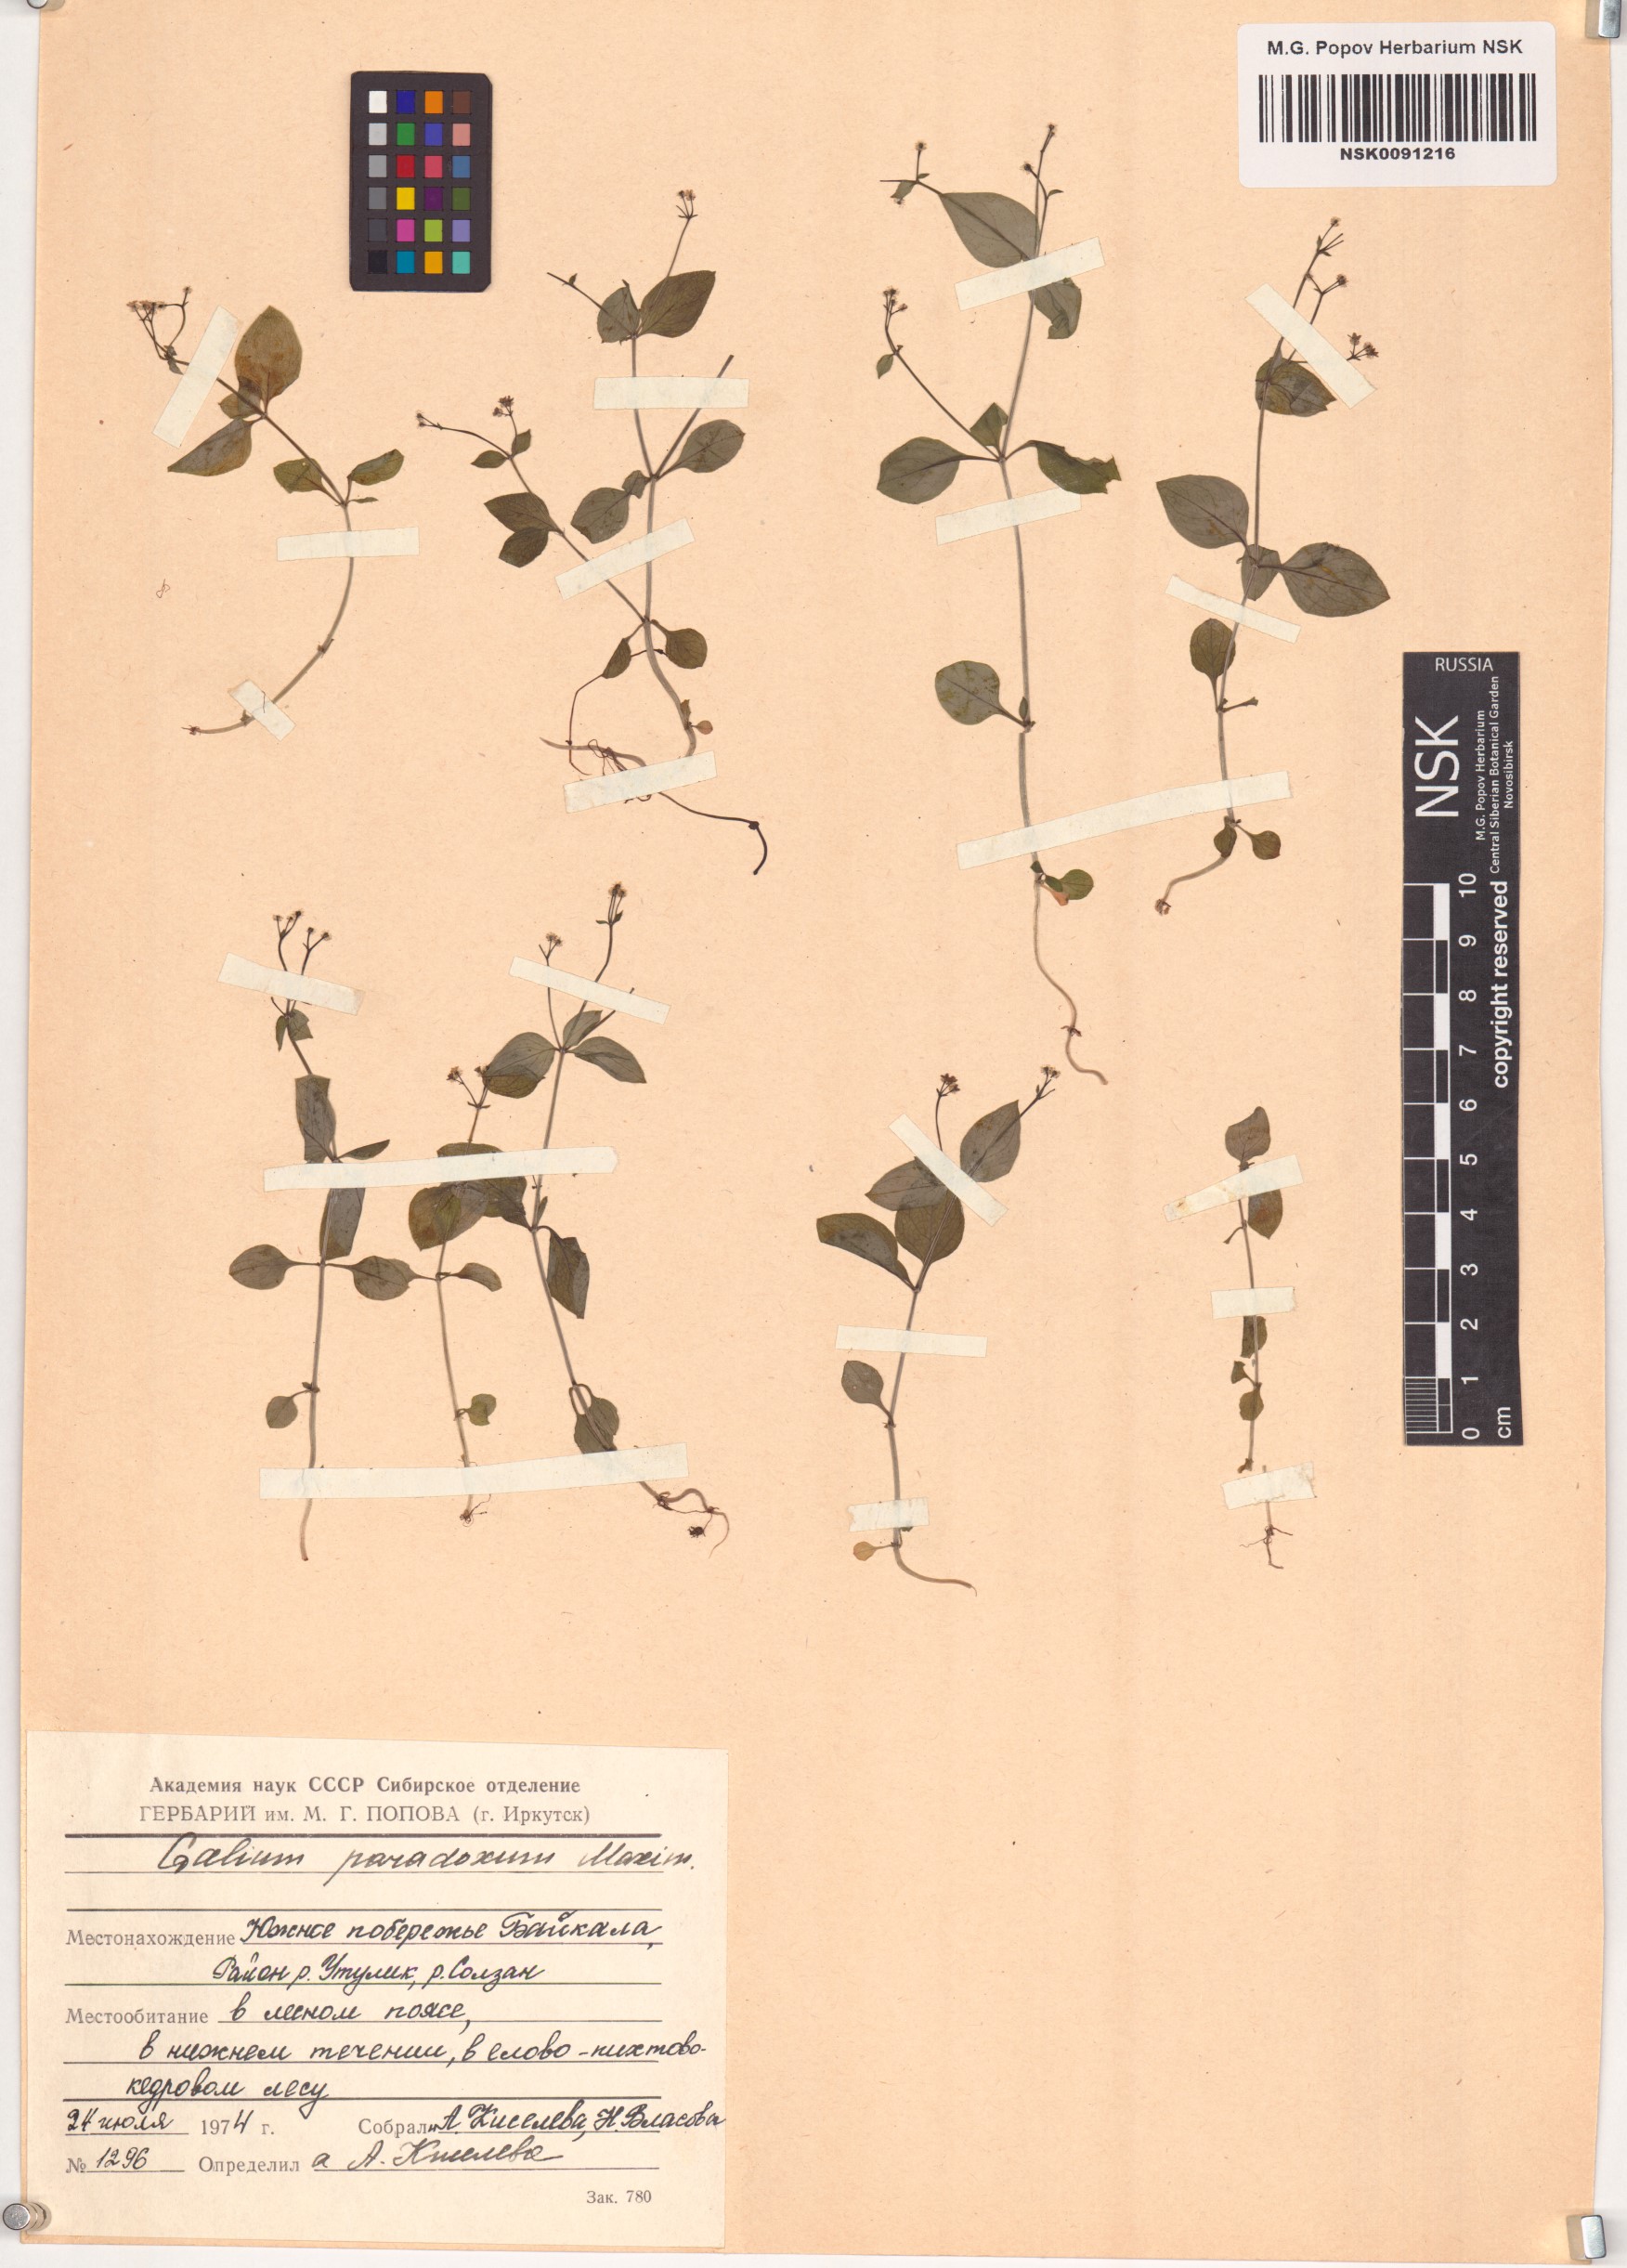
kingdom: Plantae
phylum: Tracheophyta
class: Magnoliopsida
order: Gentianales
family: Rubiaceae
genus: Pseudogalium
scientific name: Pseudogalium paradoxum
